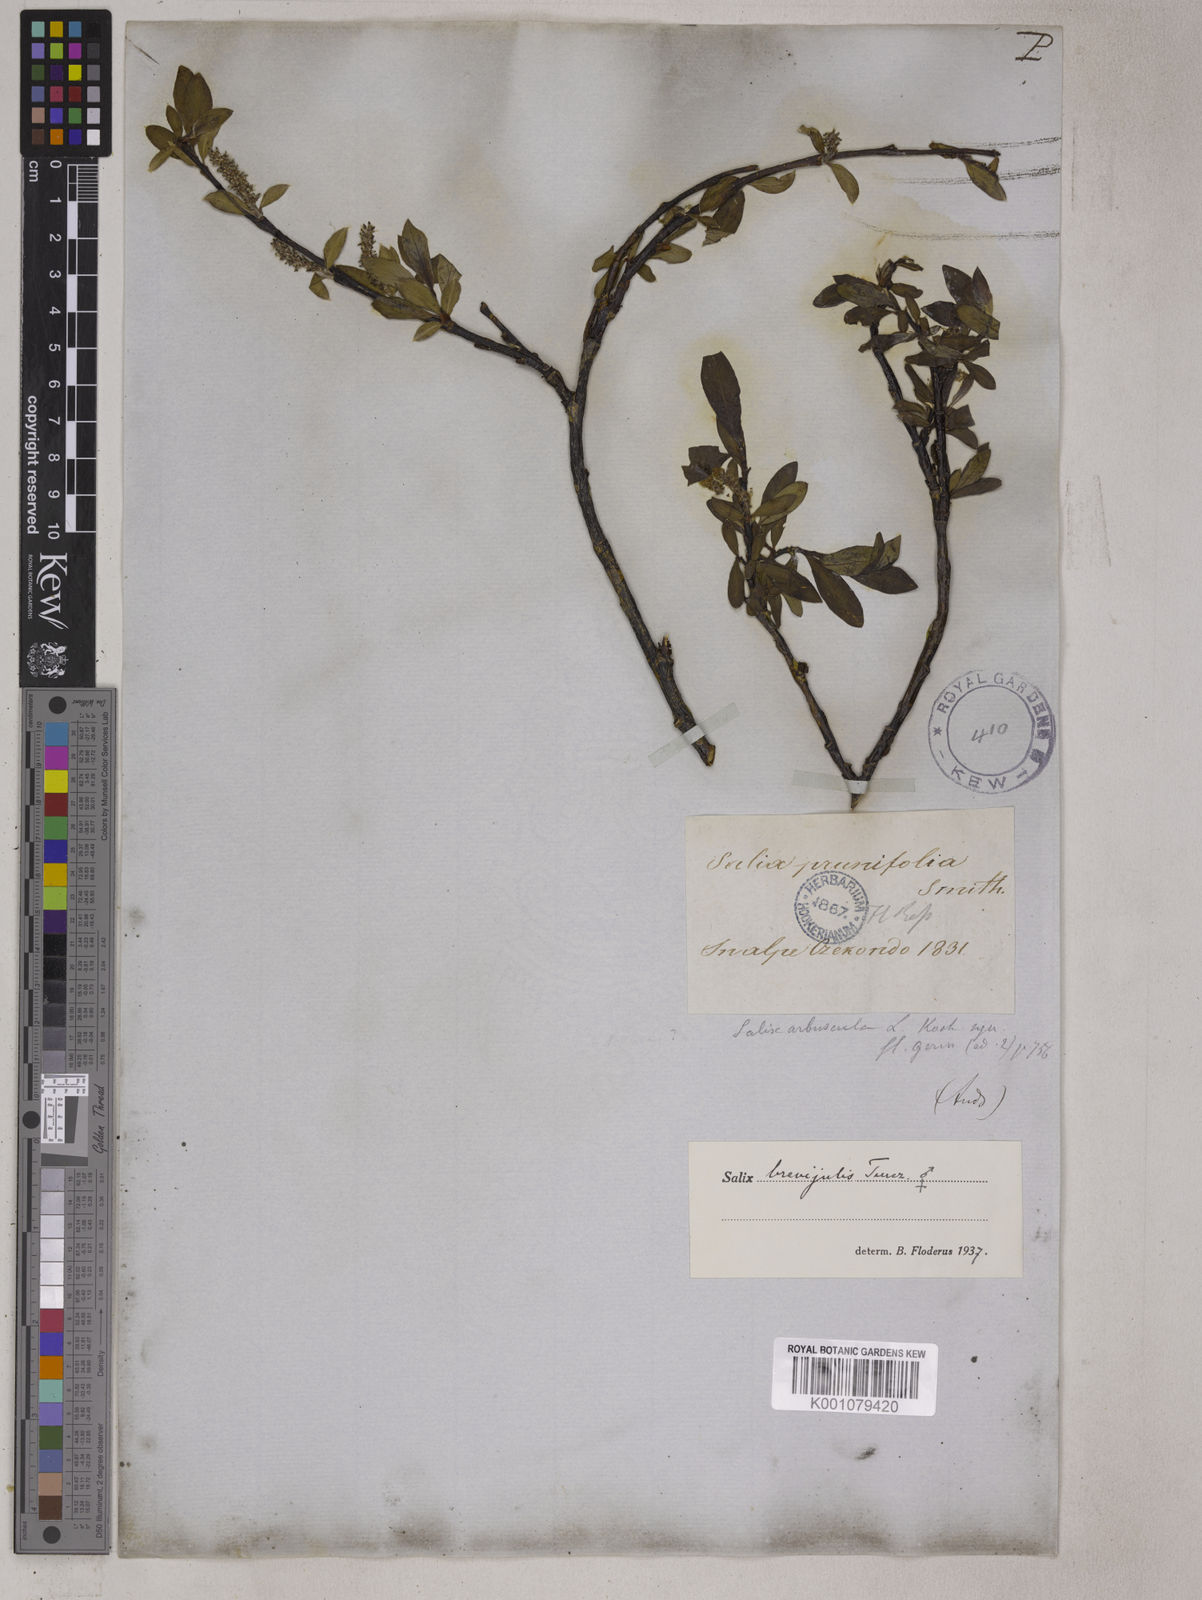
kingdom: Plantae
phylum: Tracheophyta
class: Magnoliopsida
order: Malpighiales
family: Salicaceae
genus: Salix
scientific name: Salix myrsinifolia
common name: Dark-leaved willow
